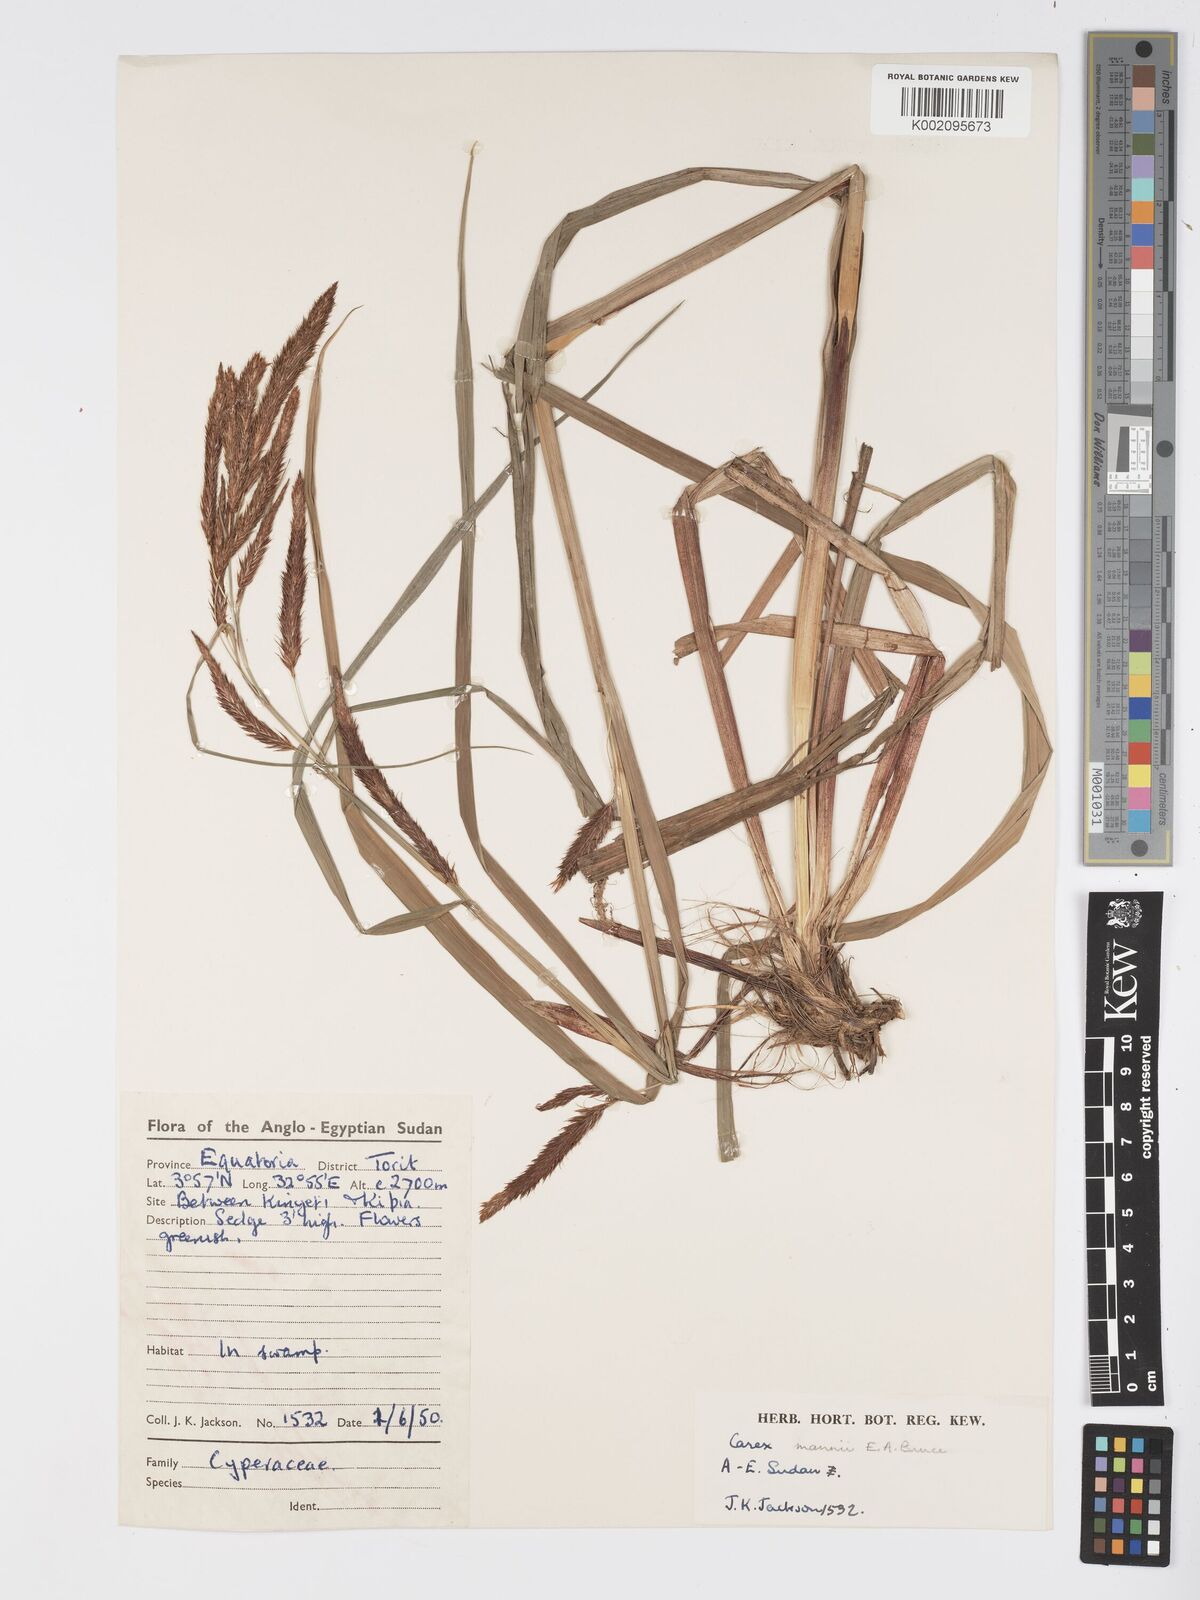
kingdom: Plantae
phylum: Tracheophyta
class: Liliopsida
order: Poales
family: Cyperaceae
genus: Carex
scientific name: Carex mannii
